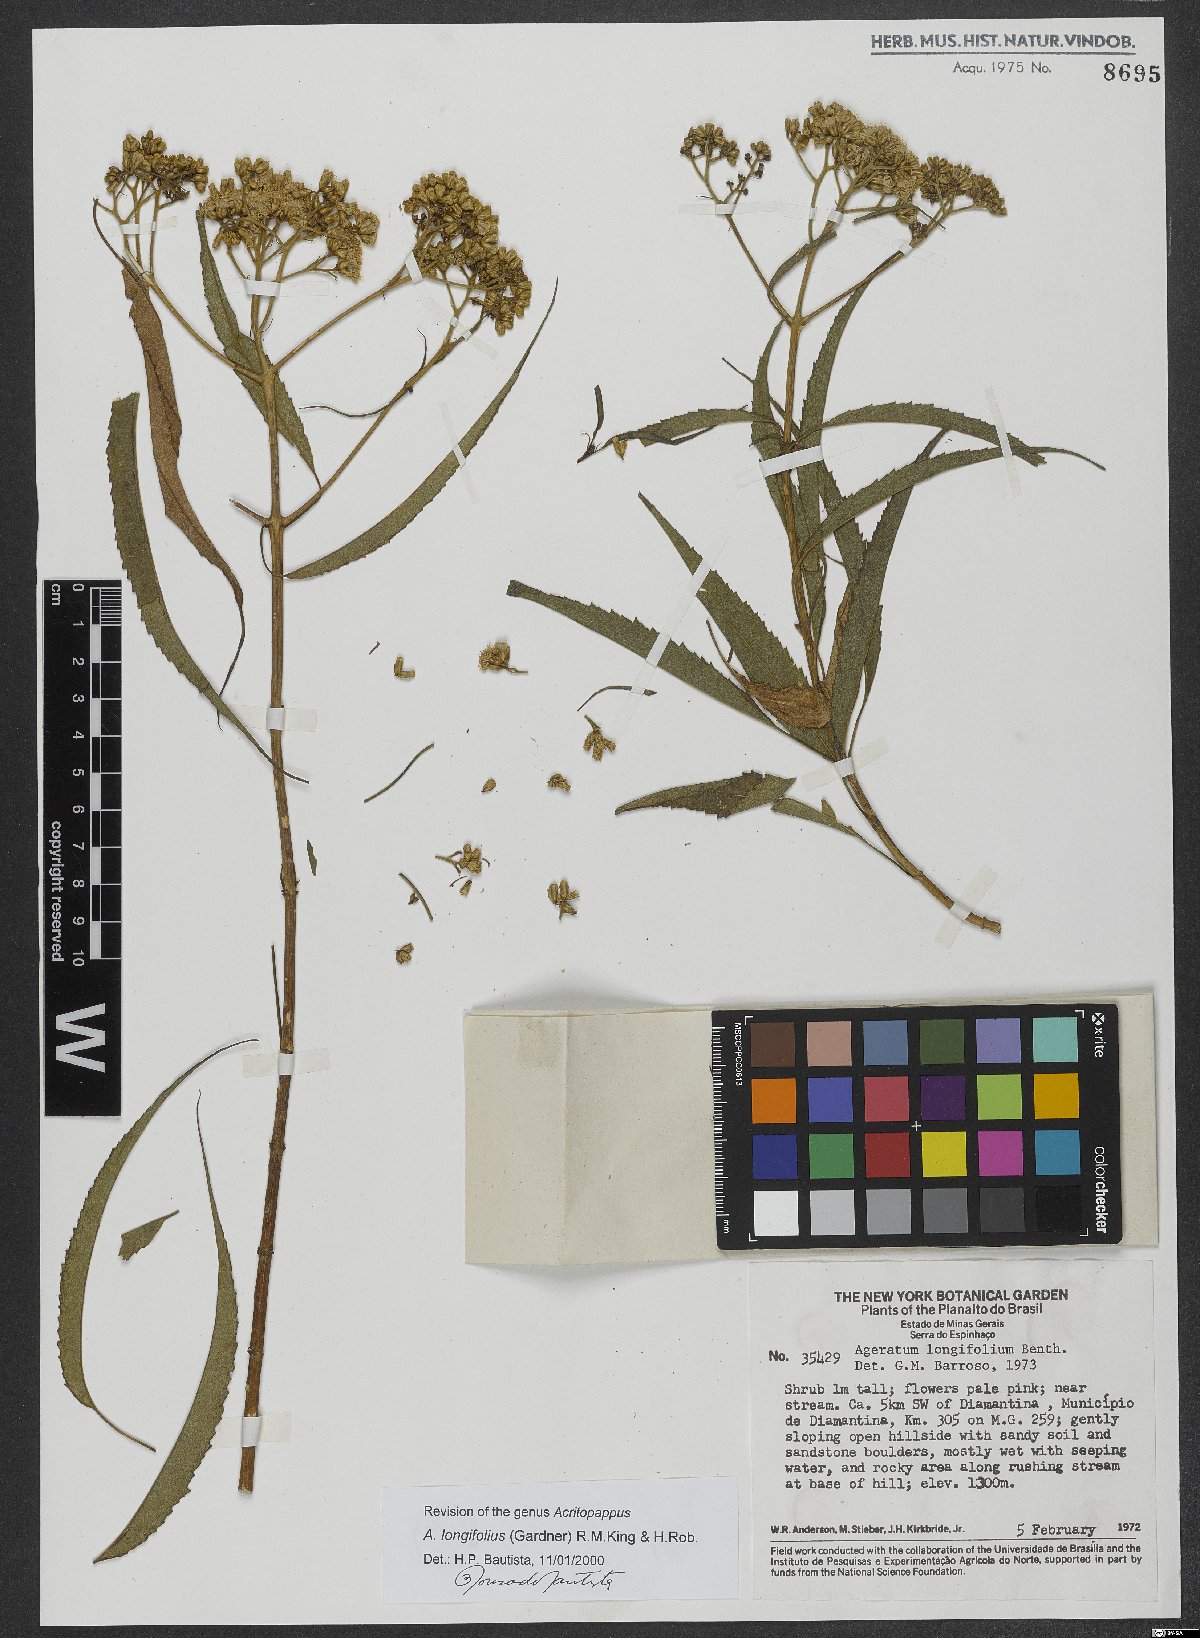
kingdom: Plantae
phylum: Tracheophyta
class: Magnoliopsida
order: Asterales
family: Asteraceae
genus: Acritopappus
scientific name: Acritopappus longifolius
